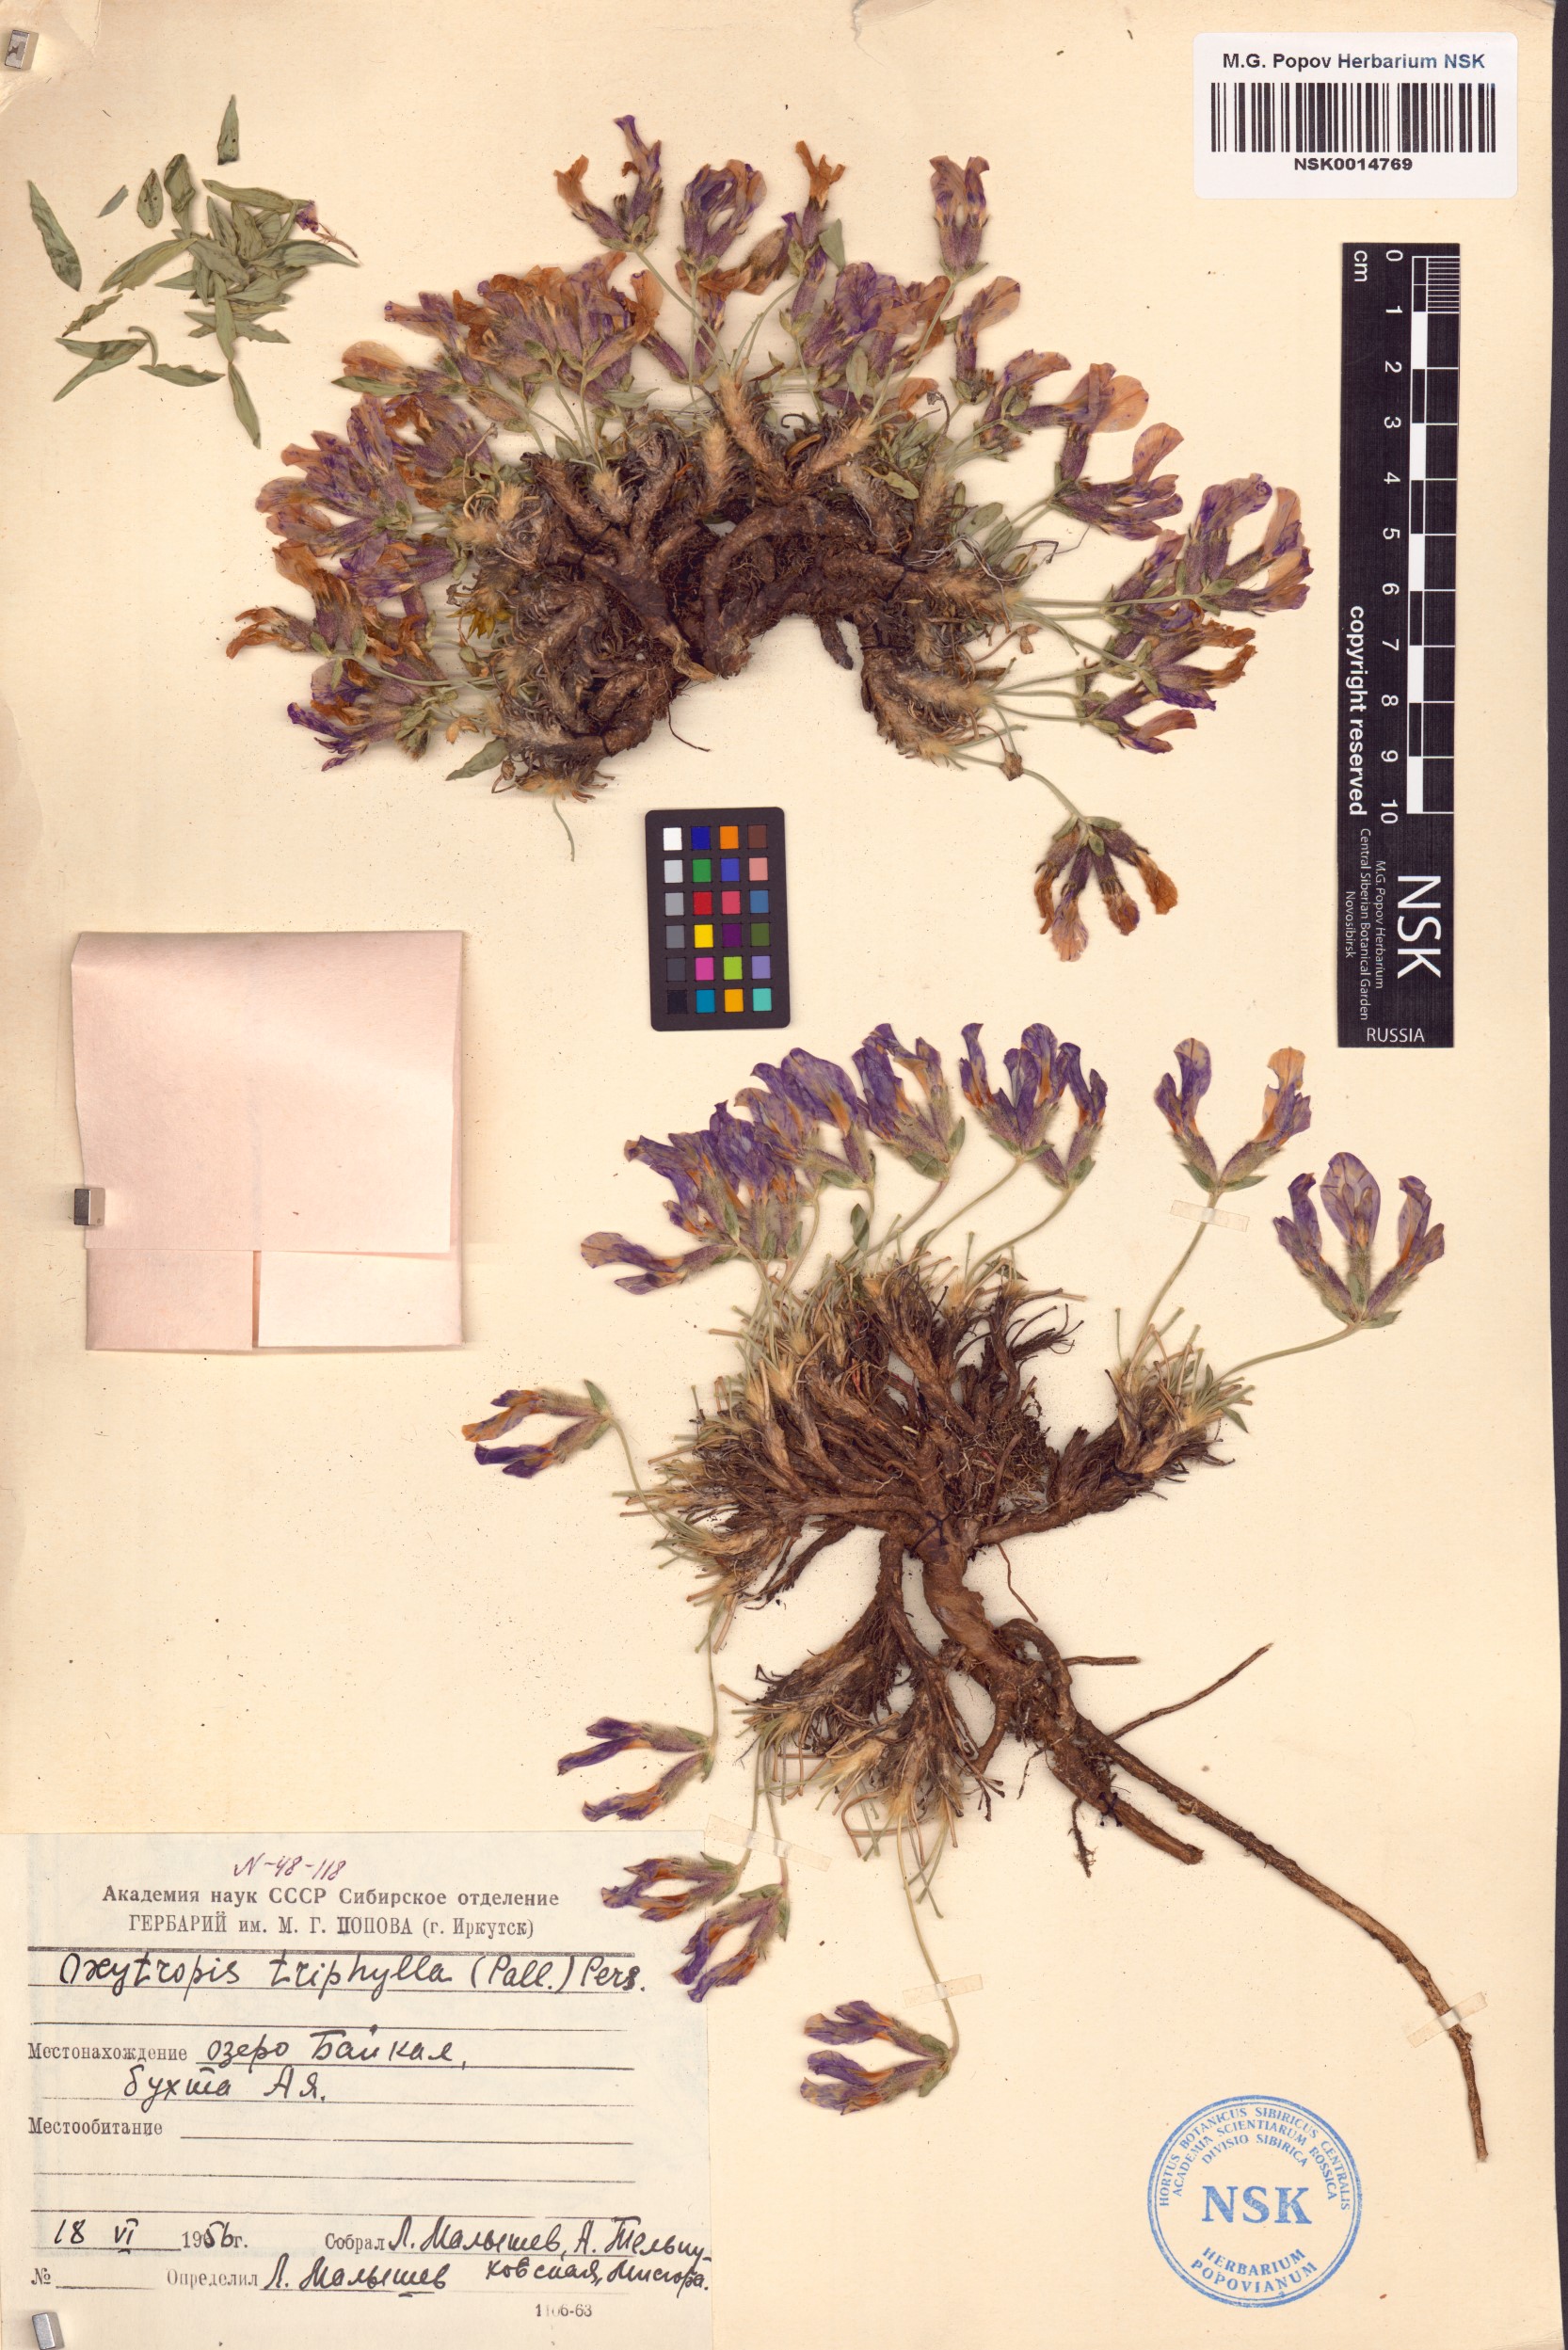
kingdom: Plantae
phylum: Tracheophyta
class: Magnoliopsida
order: Fabales
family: Fabaceae
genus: Oxytropis
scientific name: Oxytropis triphylla
